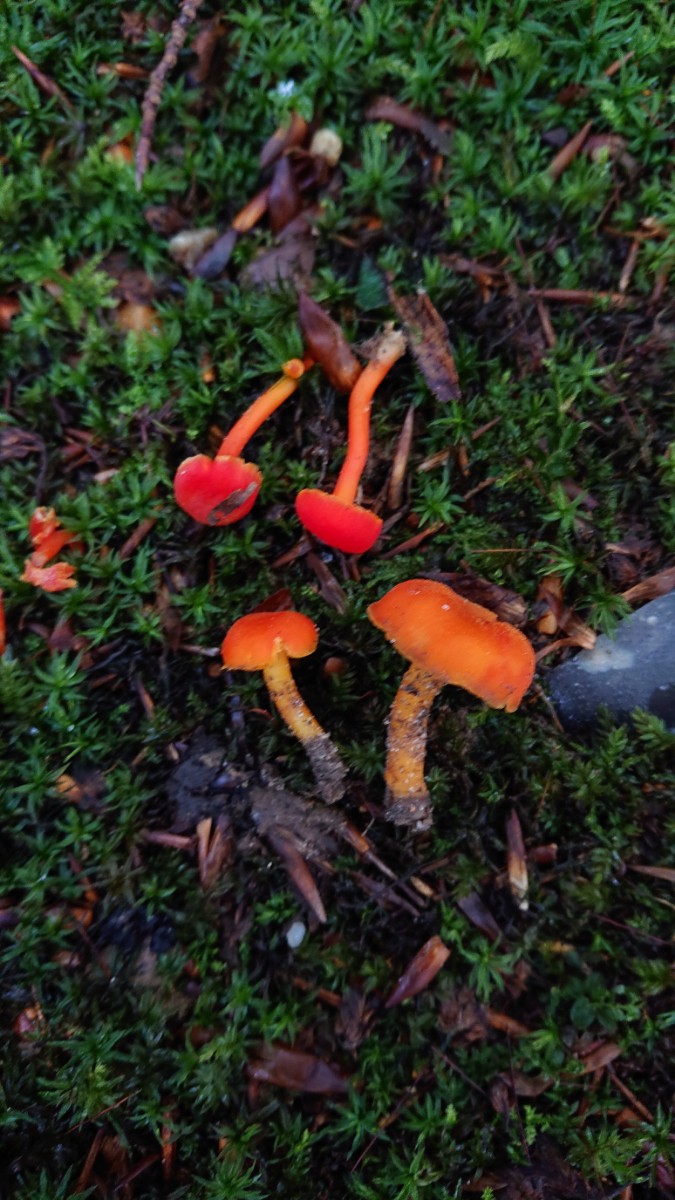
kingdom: Fungi
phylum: Basidiomycota
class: Agaricomycetes
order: Agaricales
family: Hygrophoraceae
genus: Hygrocybe
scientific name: Hygrocybe miniata
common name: mønje-vokshat
